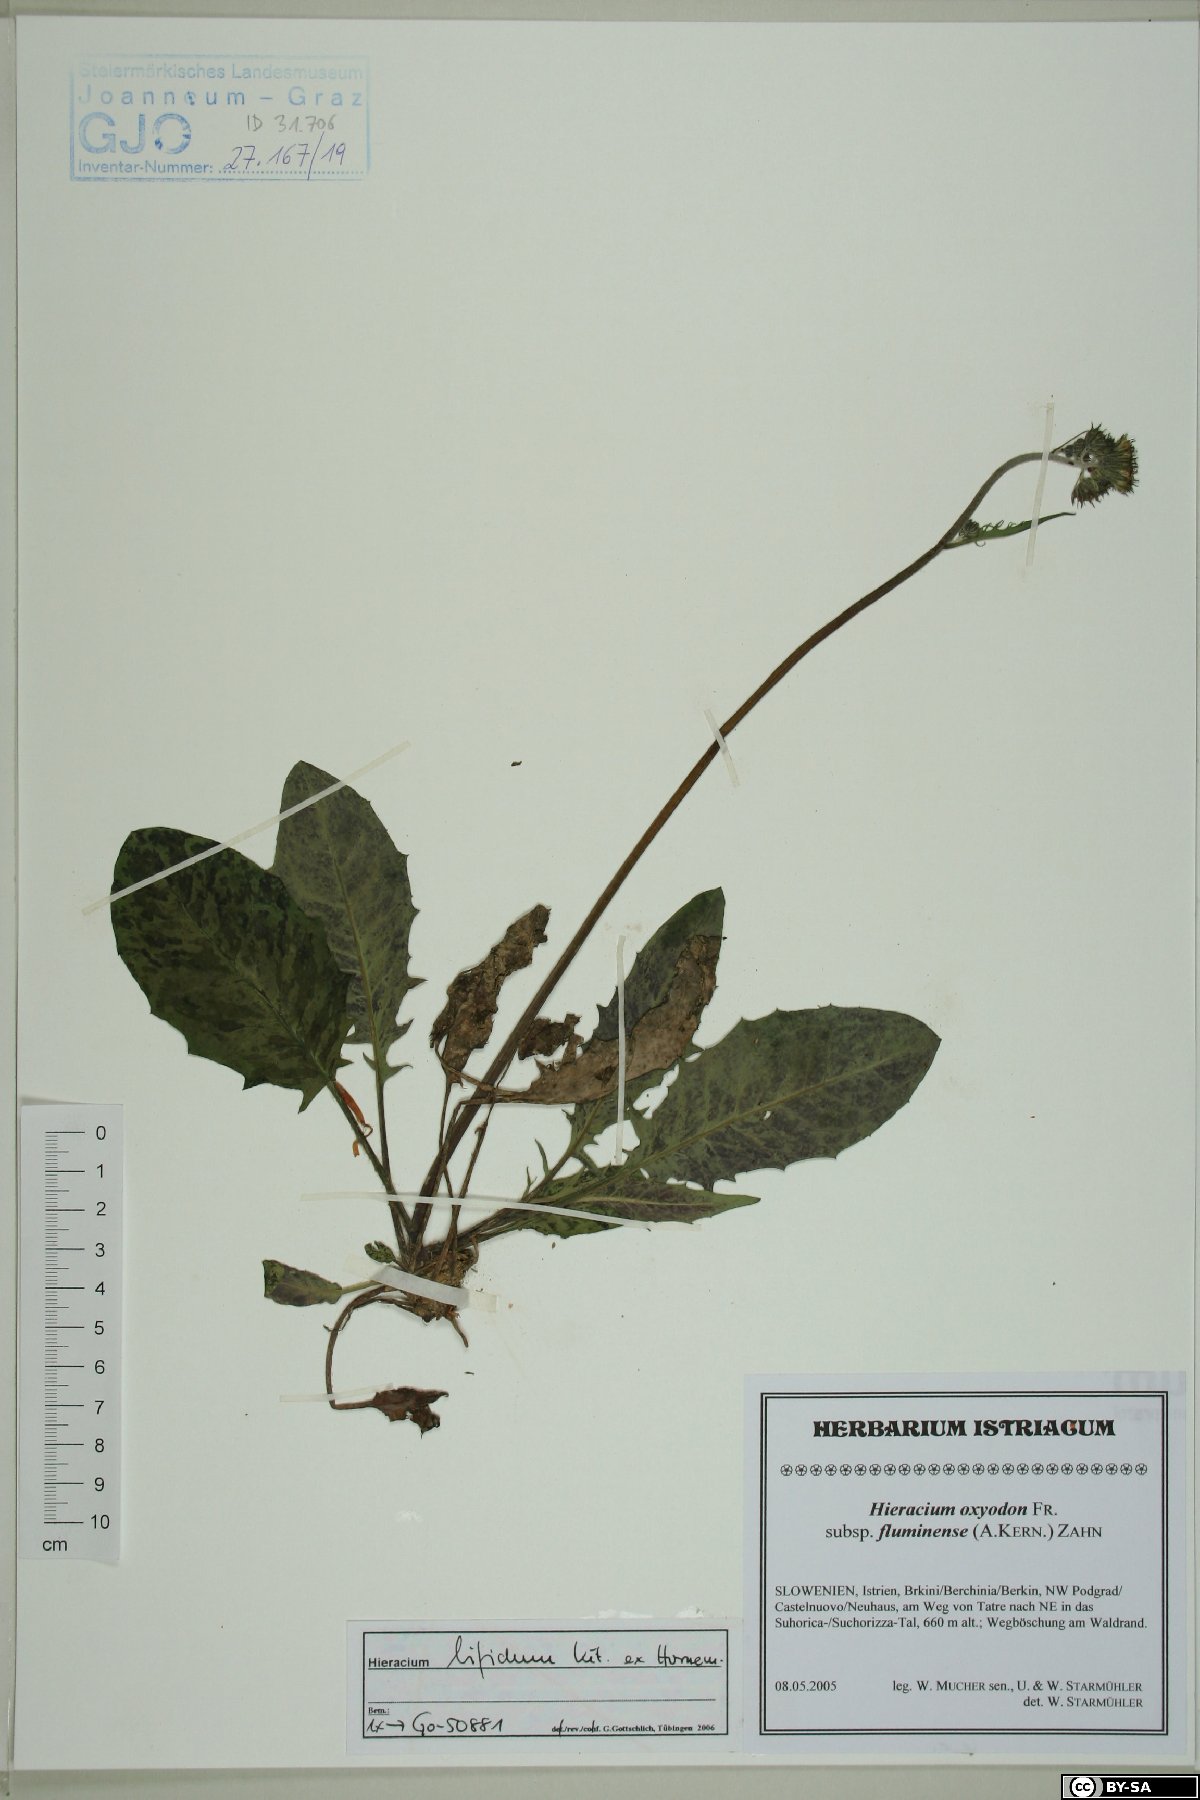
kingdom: Plantae
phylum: Tracheophyta
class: Magnoliopsida
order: Asterales
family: Asteraceae
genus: Hieracium
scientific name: Hieracium bifidum
